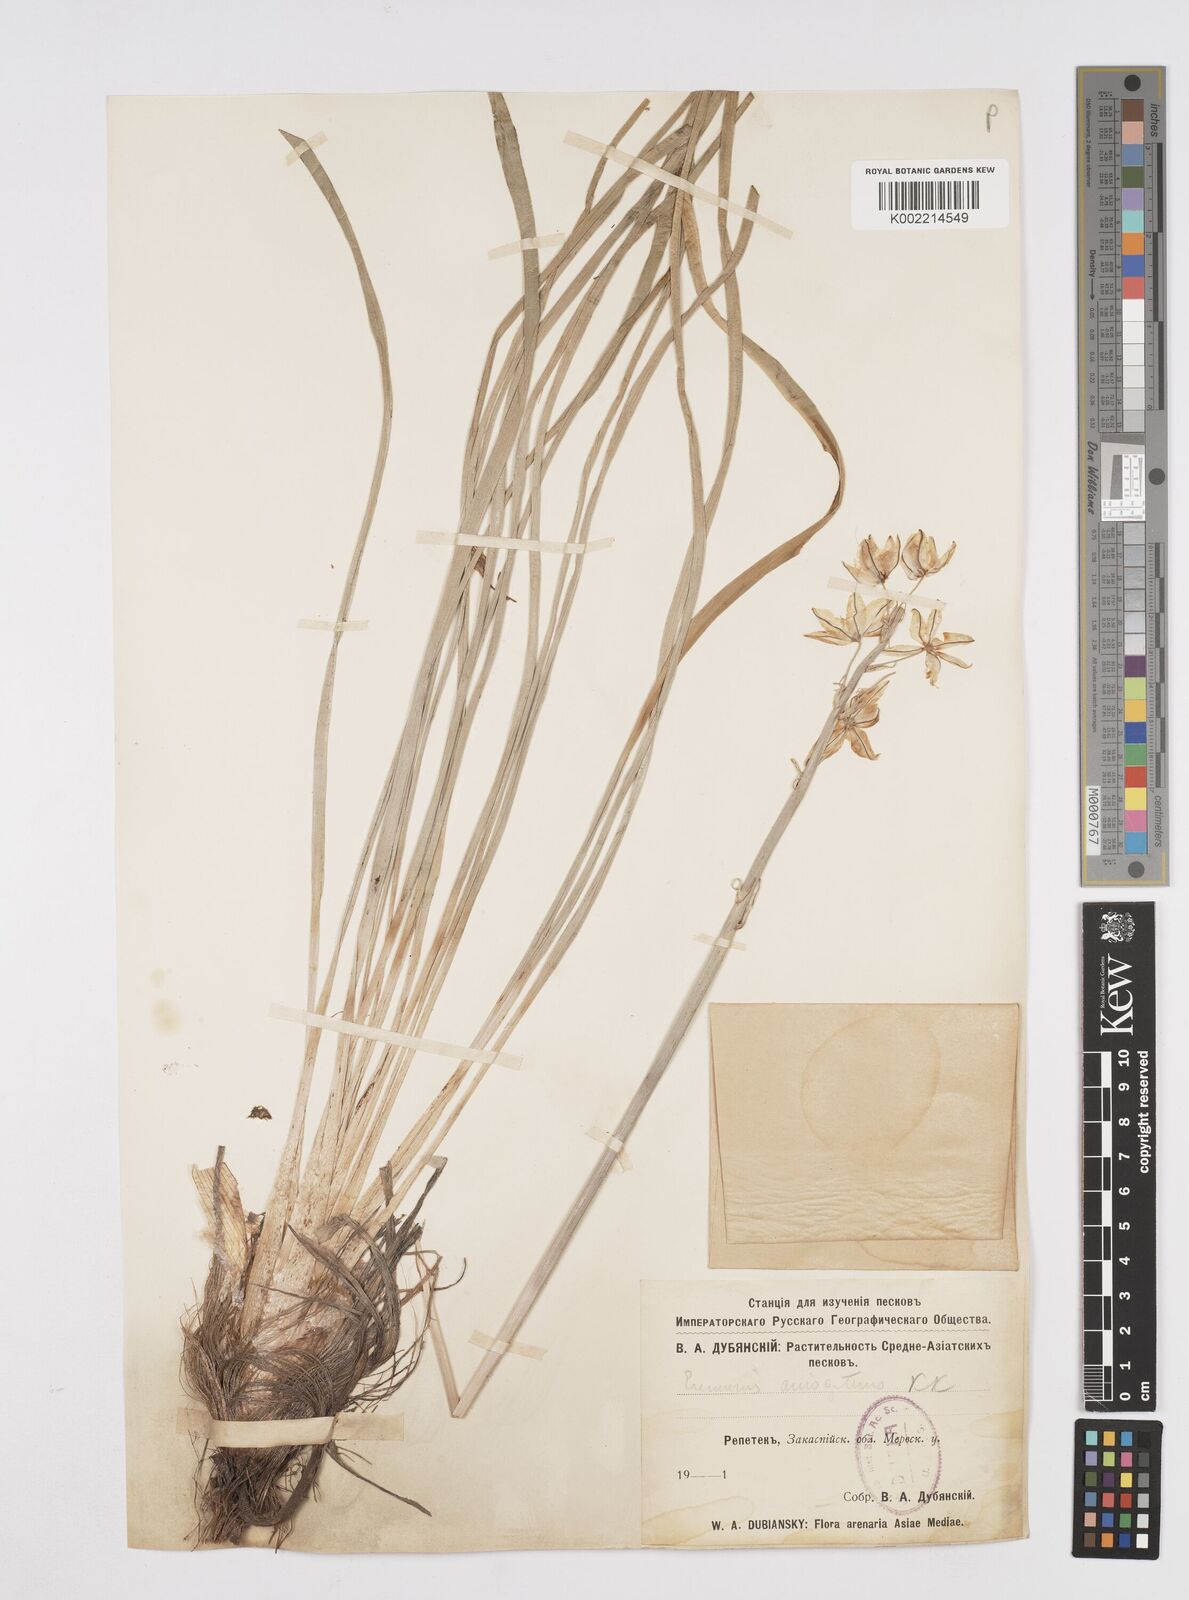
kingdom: Plantae
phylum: Tracheophyta
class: Liliopsida
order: Asparagales
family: Asphodelaceae
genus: Eremurus
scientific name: Eremurus anisopterus
